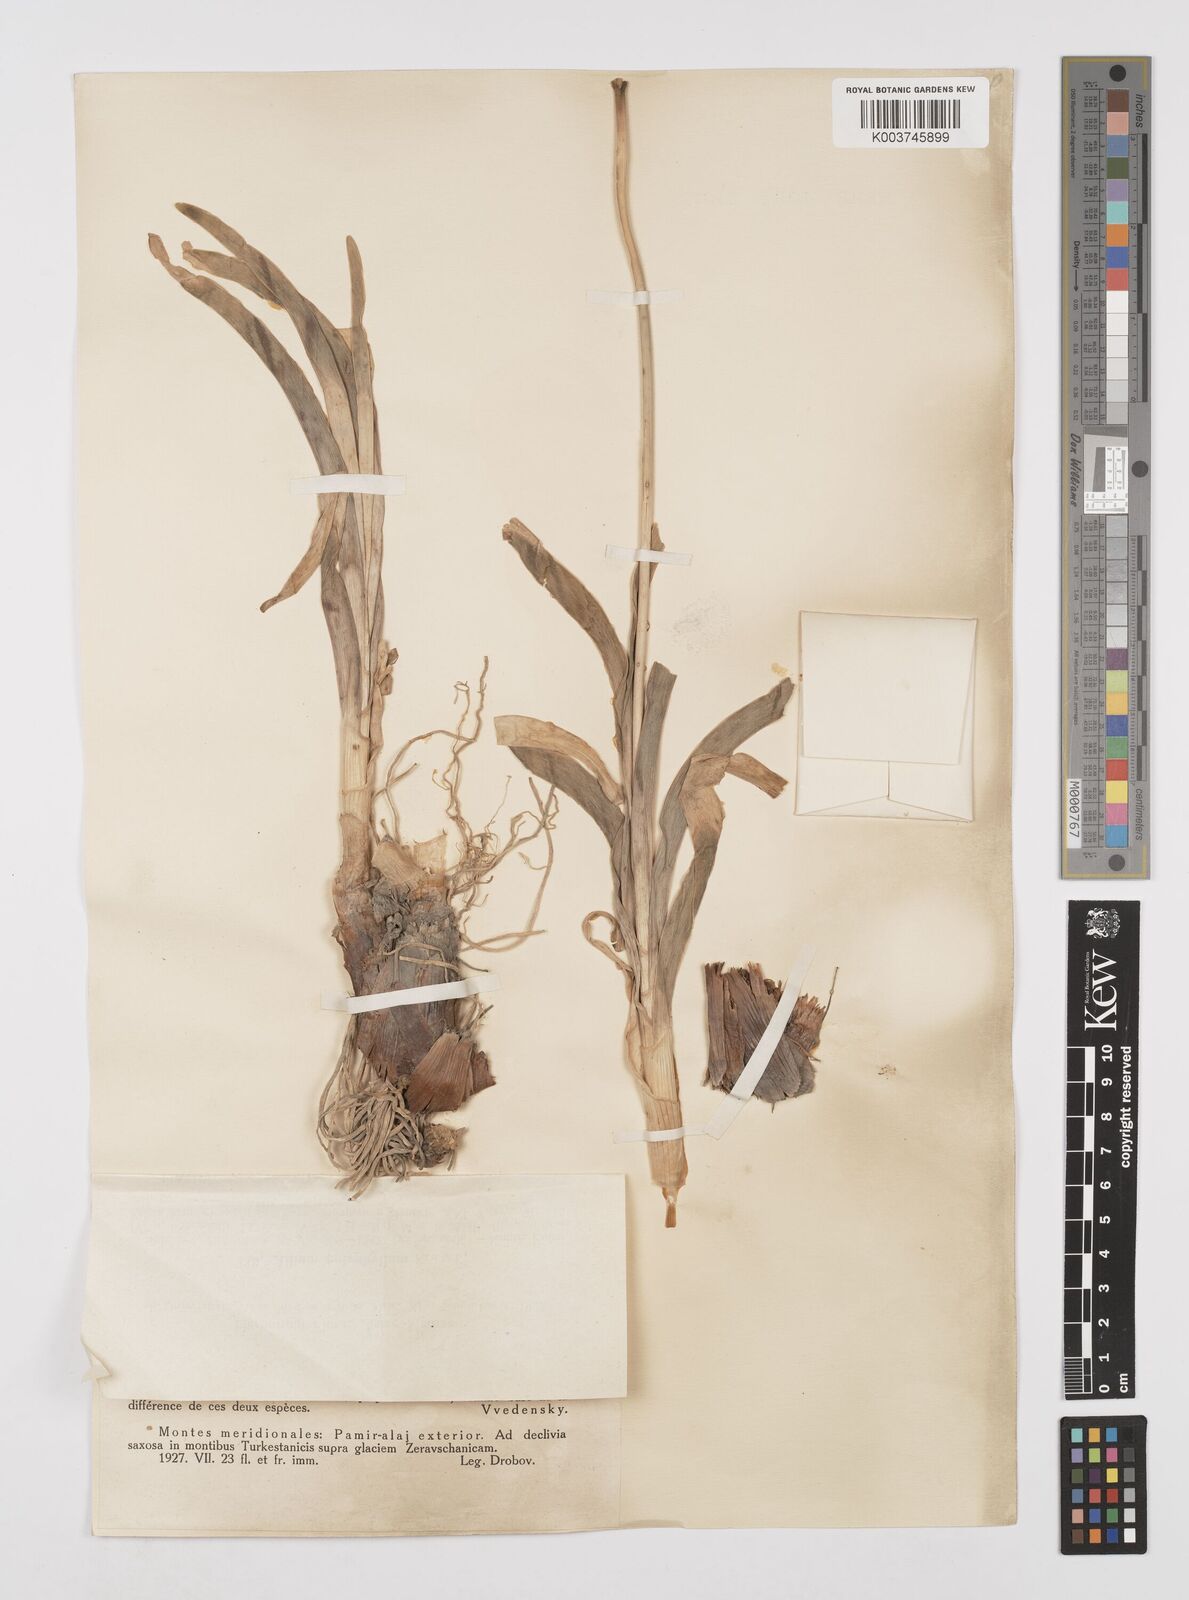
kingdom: Plantae
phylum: Tracheophyta
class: Liliopsida
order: Asparagales
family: Amaryllidaceae
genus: Allium
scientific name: Allium carolinianum
